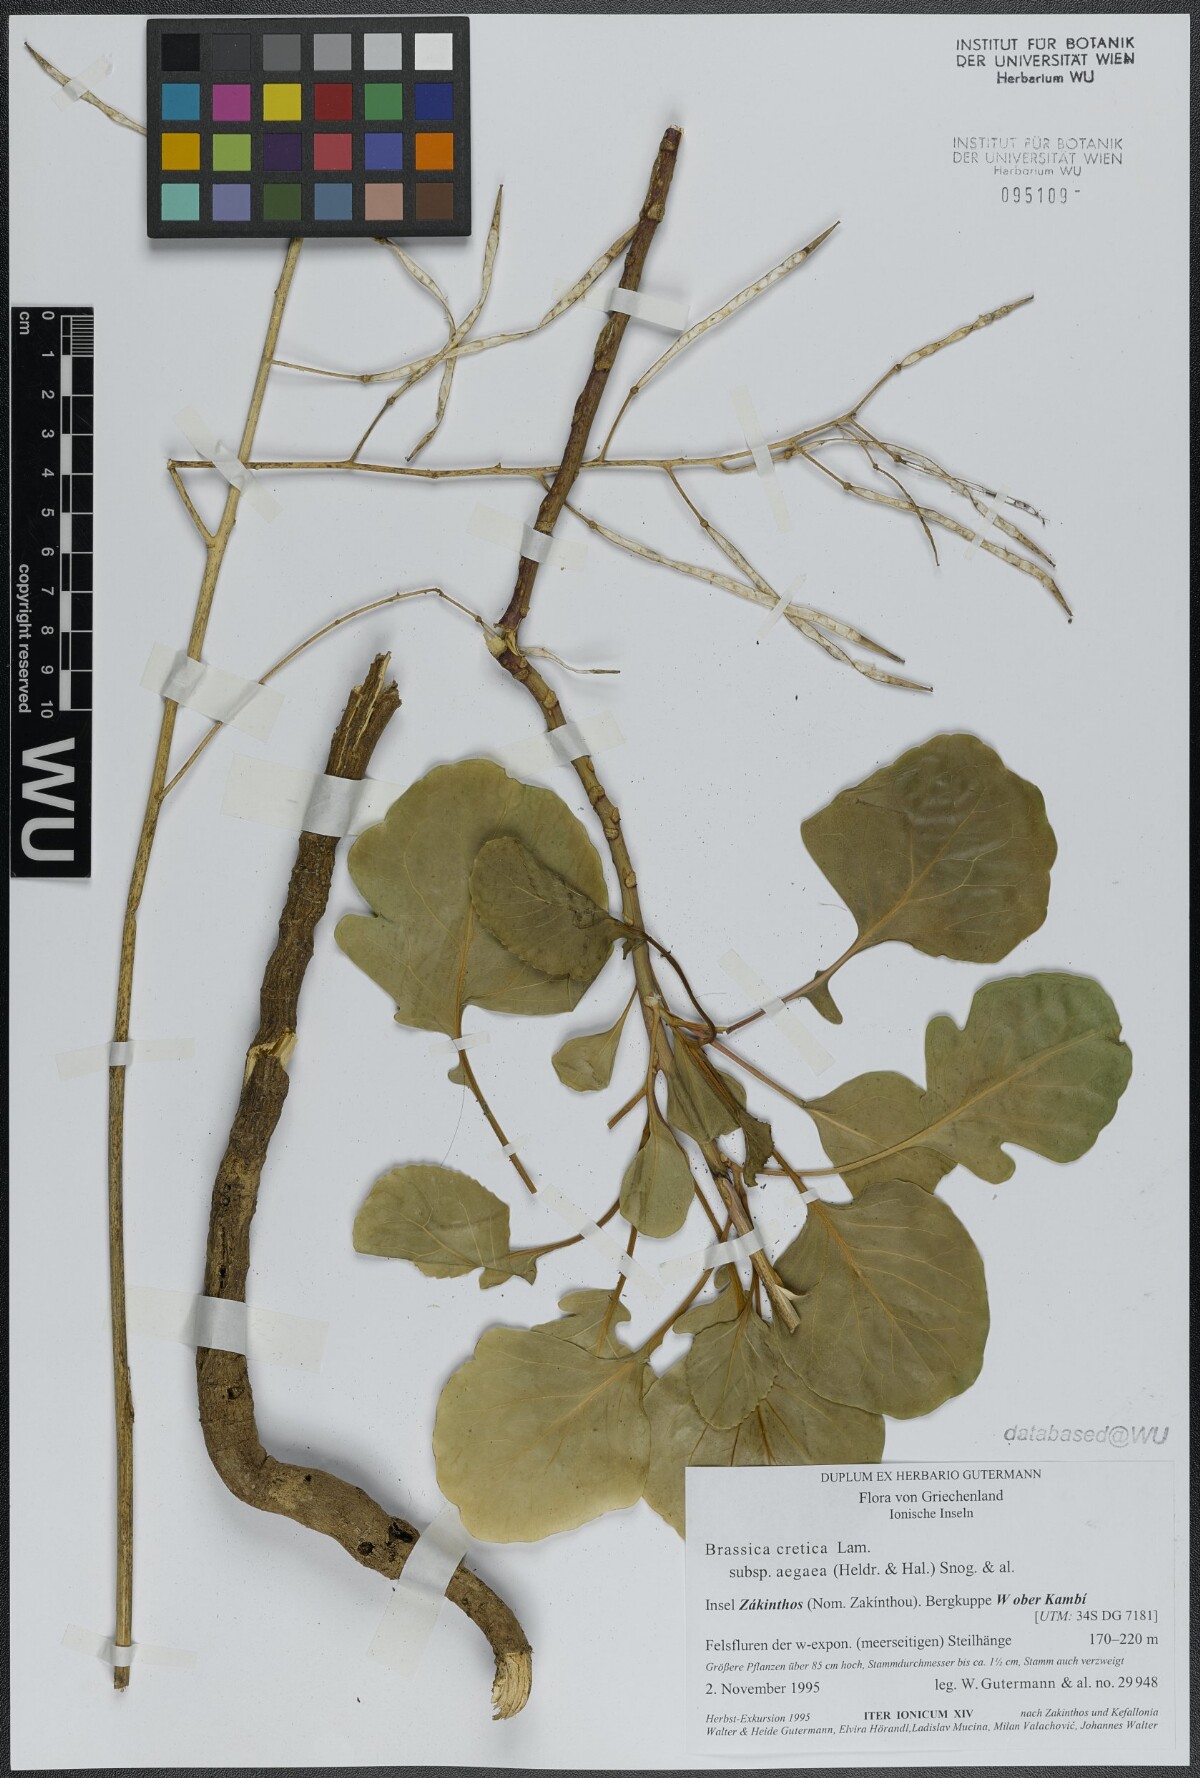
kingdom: Plantae
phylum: Tracheophyta
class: Magnoliopsida
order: Brassicales
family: Brassicaceae
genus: Brassica
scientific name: Brassica cretica
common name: Mustard
